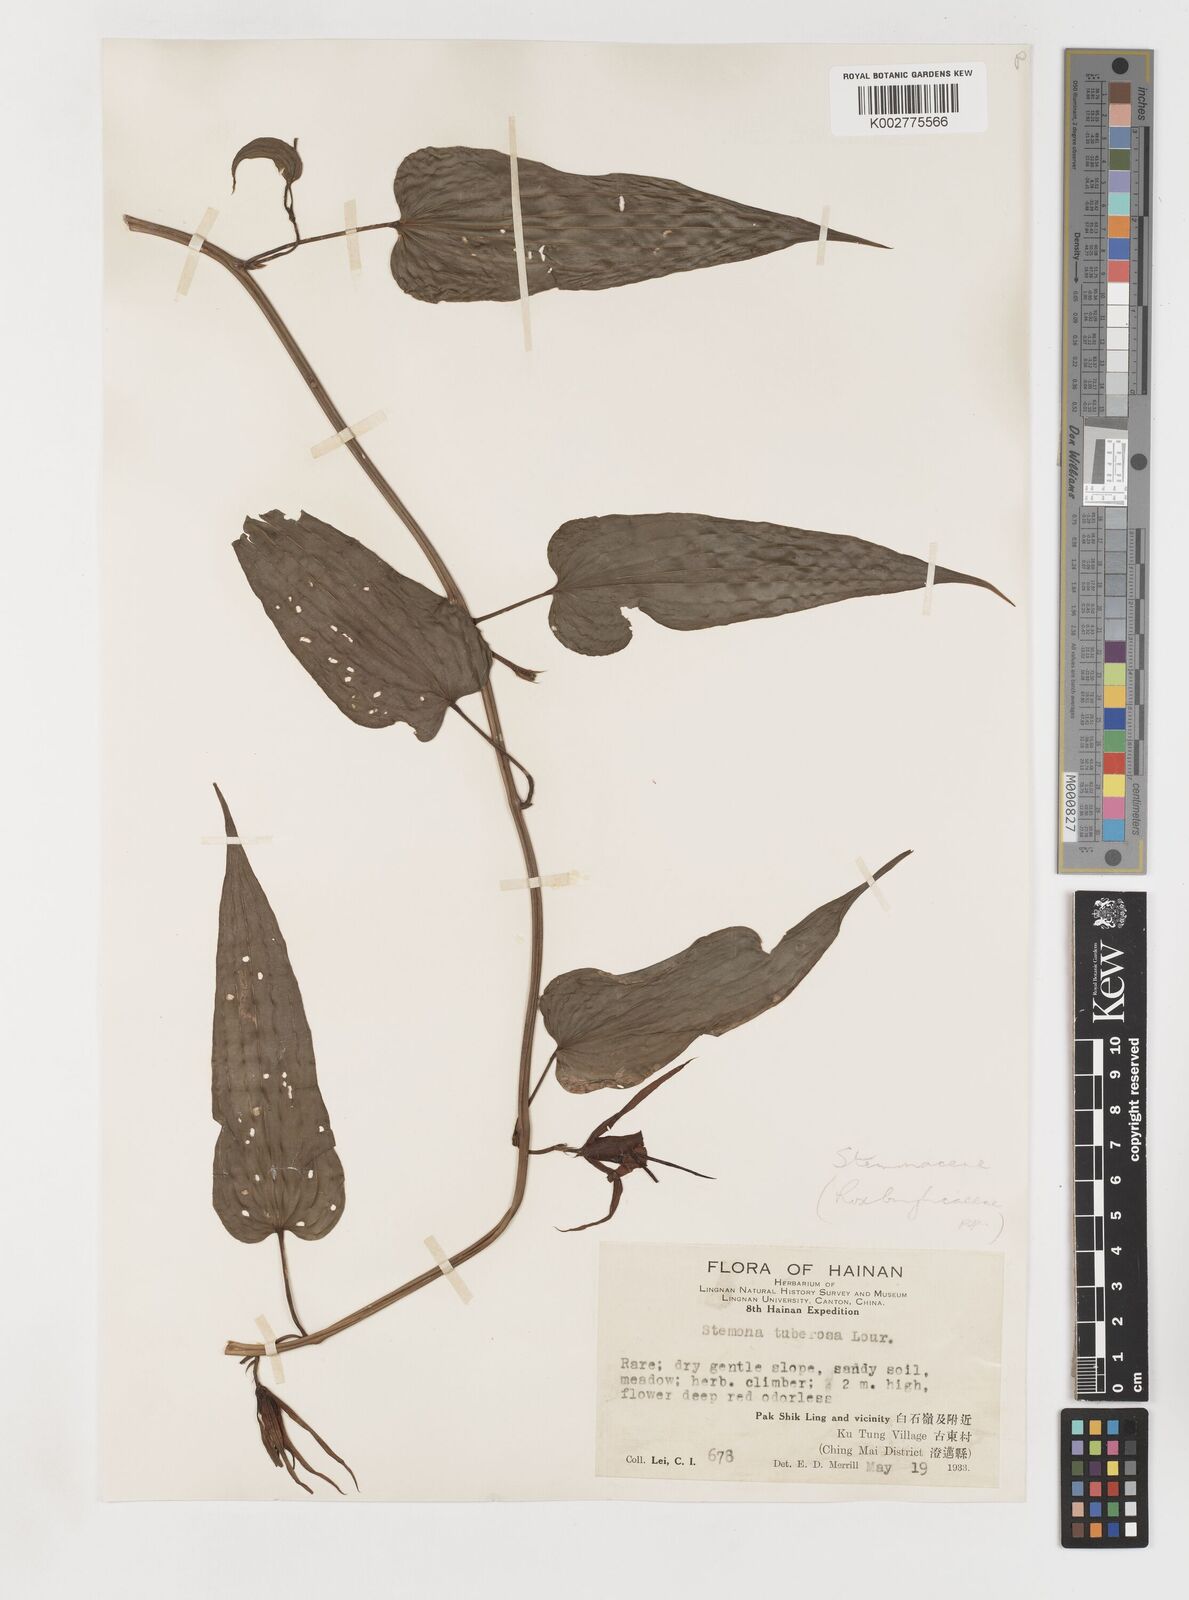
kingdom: Plantae
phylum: Tracheophyta
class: Liliopsida
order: Pandanales
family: Stemonaceae
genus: Stemona
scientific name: Stemona tuberosa
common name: Stemona
